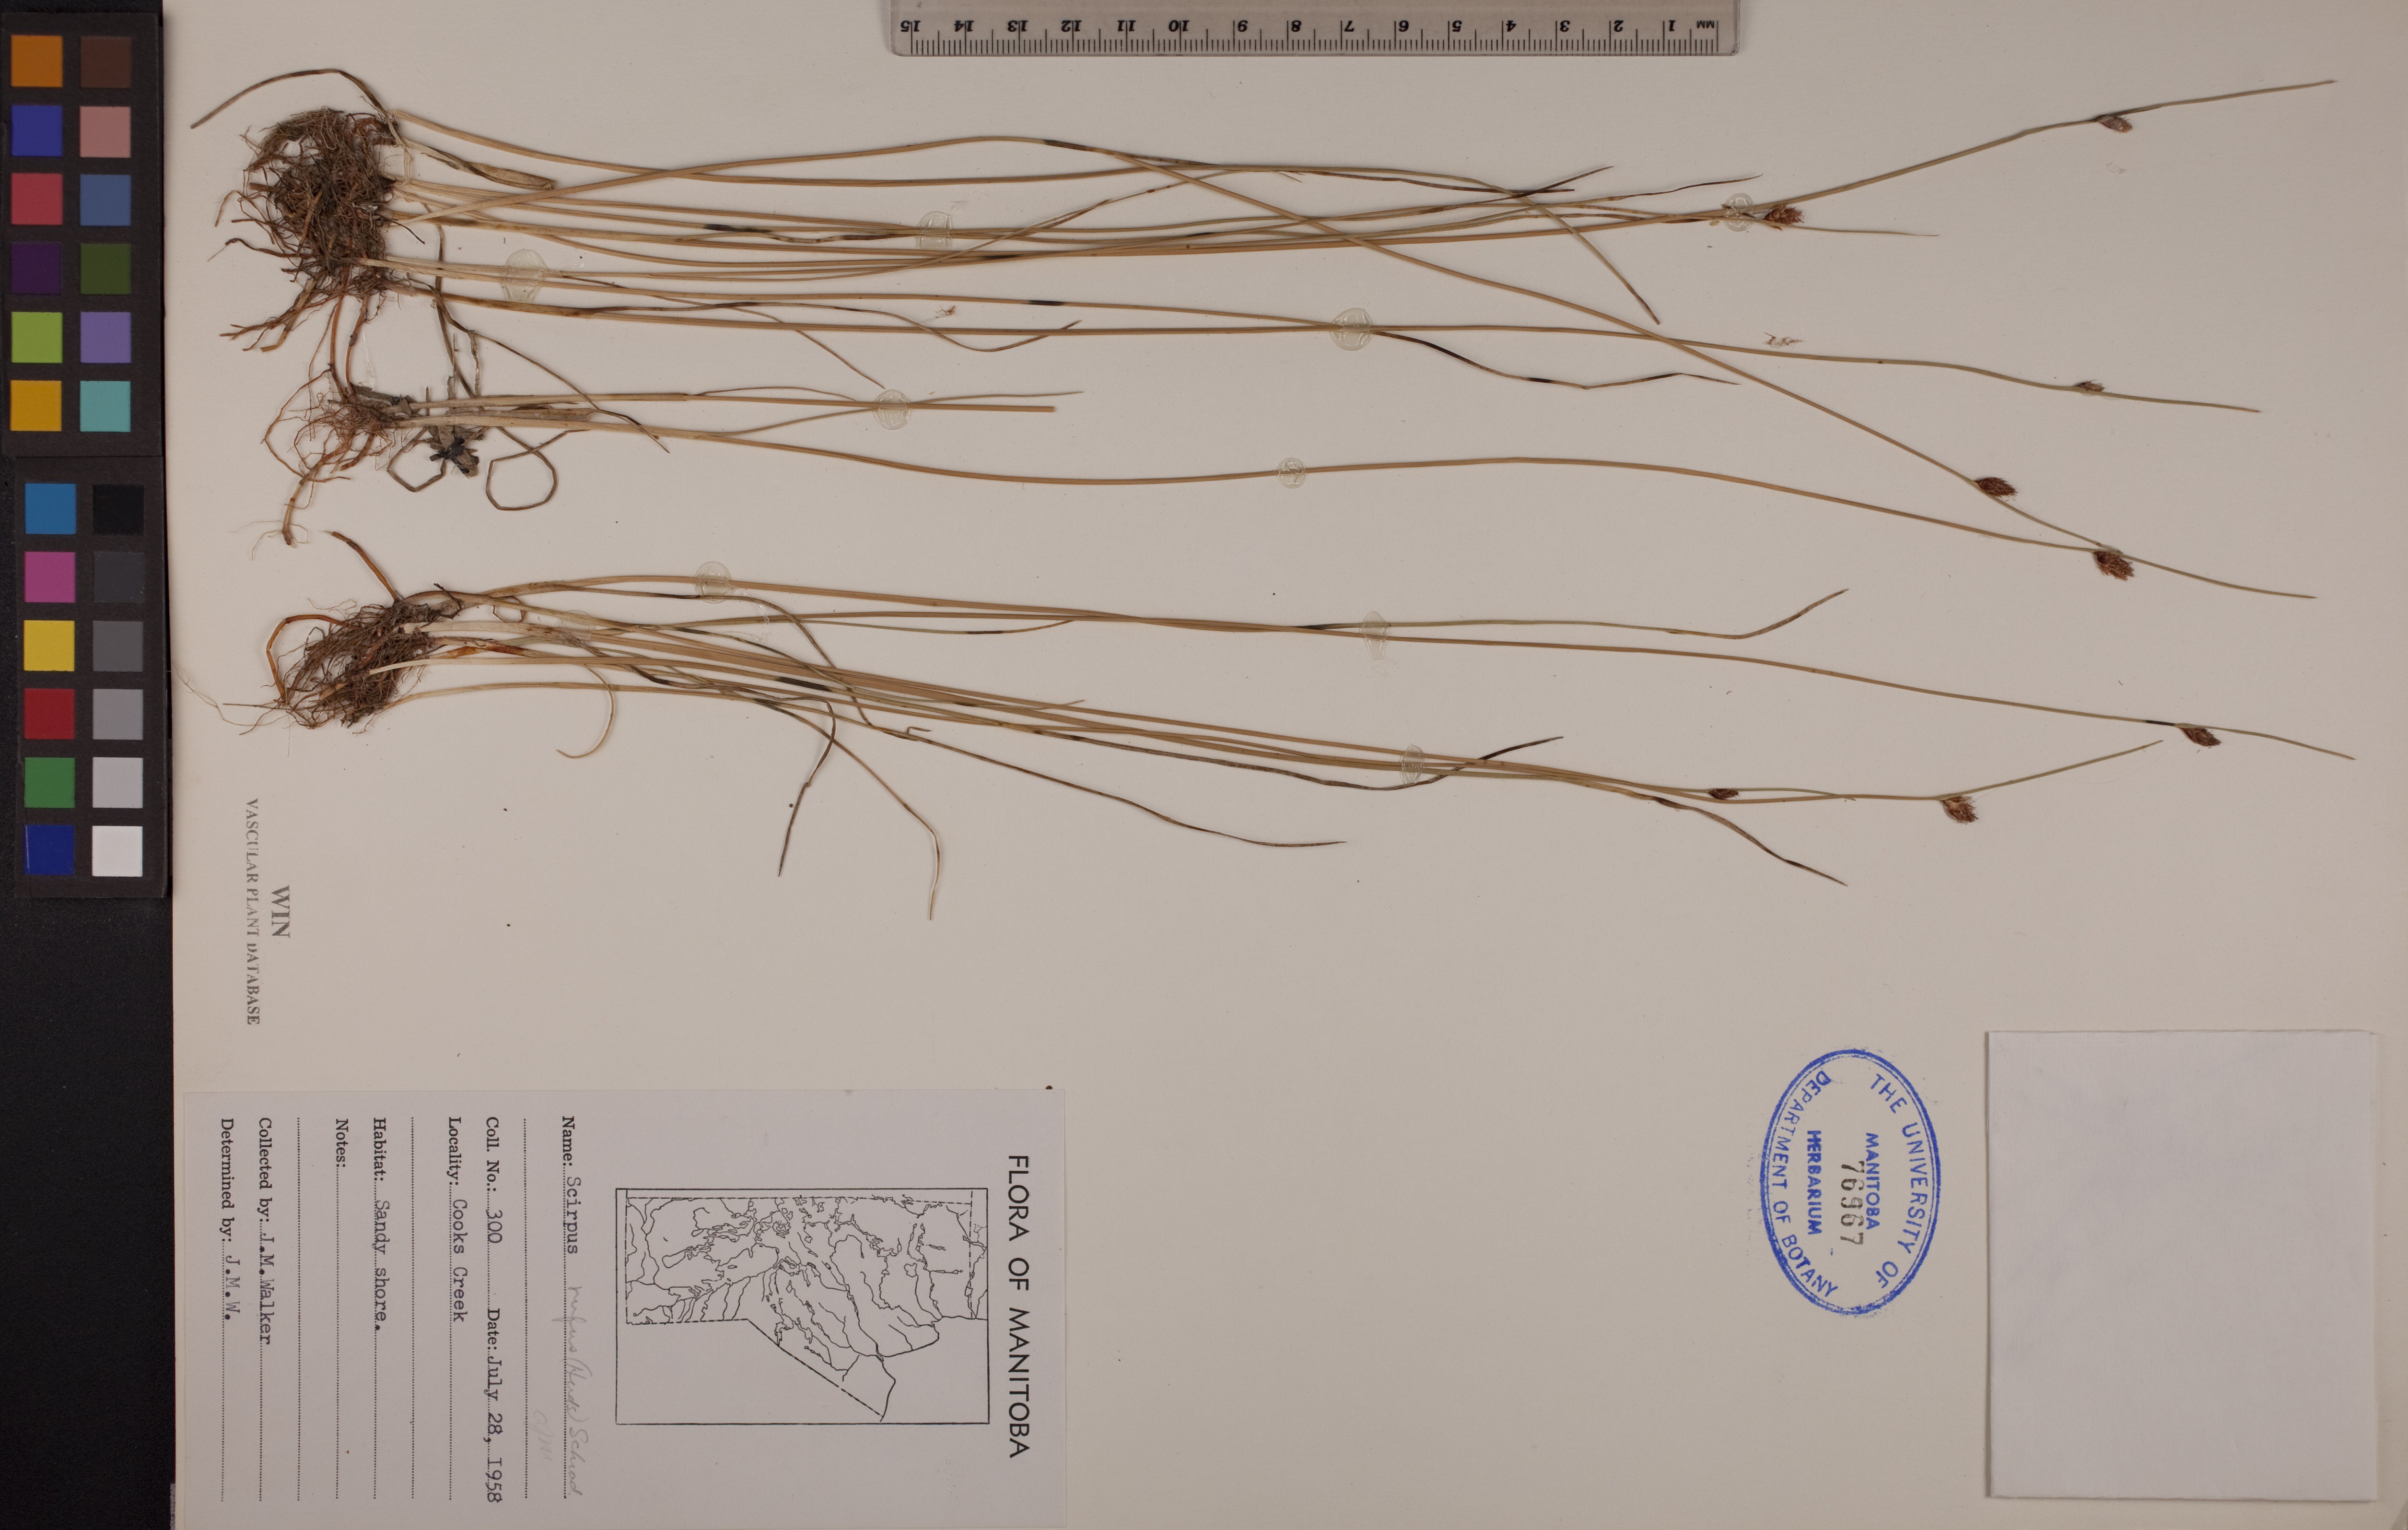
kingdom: Plantae
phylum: Tracheophyta
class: Liliopsida
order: Poales
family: Cyperaceae
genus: Blysmus
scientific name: Blysmus rufus
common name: Saltmarsh flat-sedge
